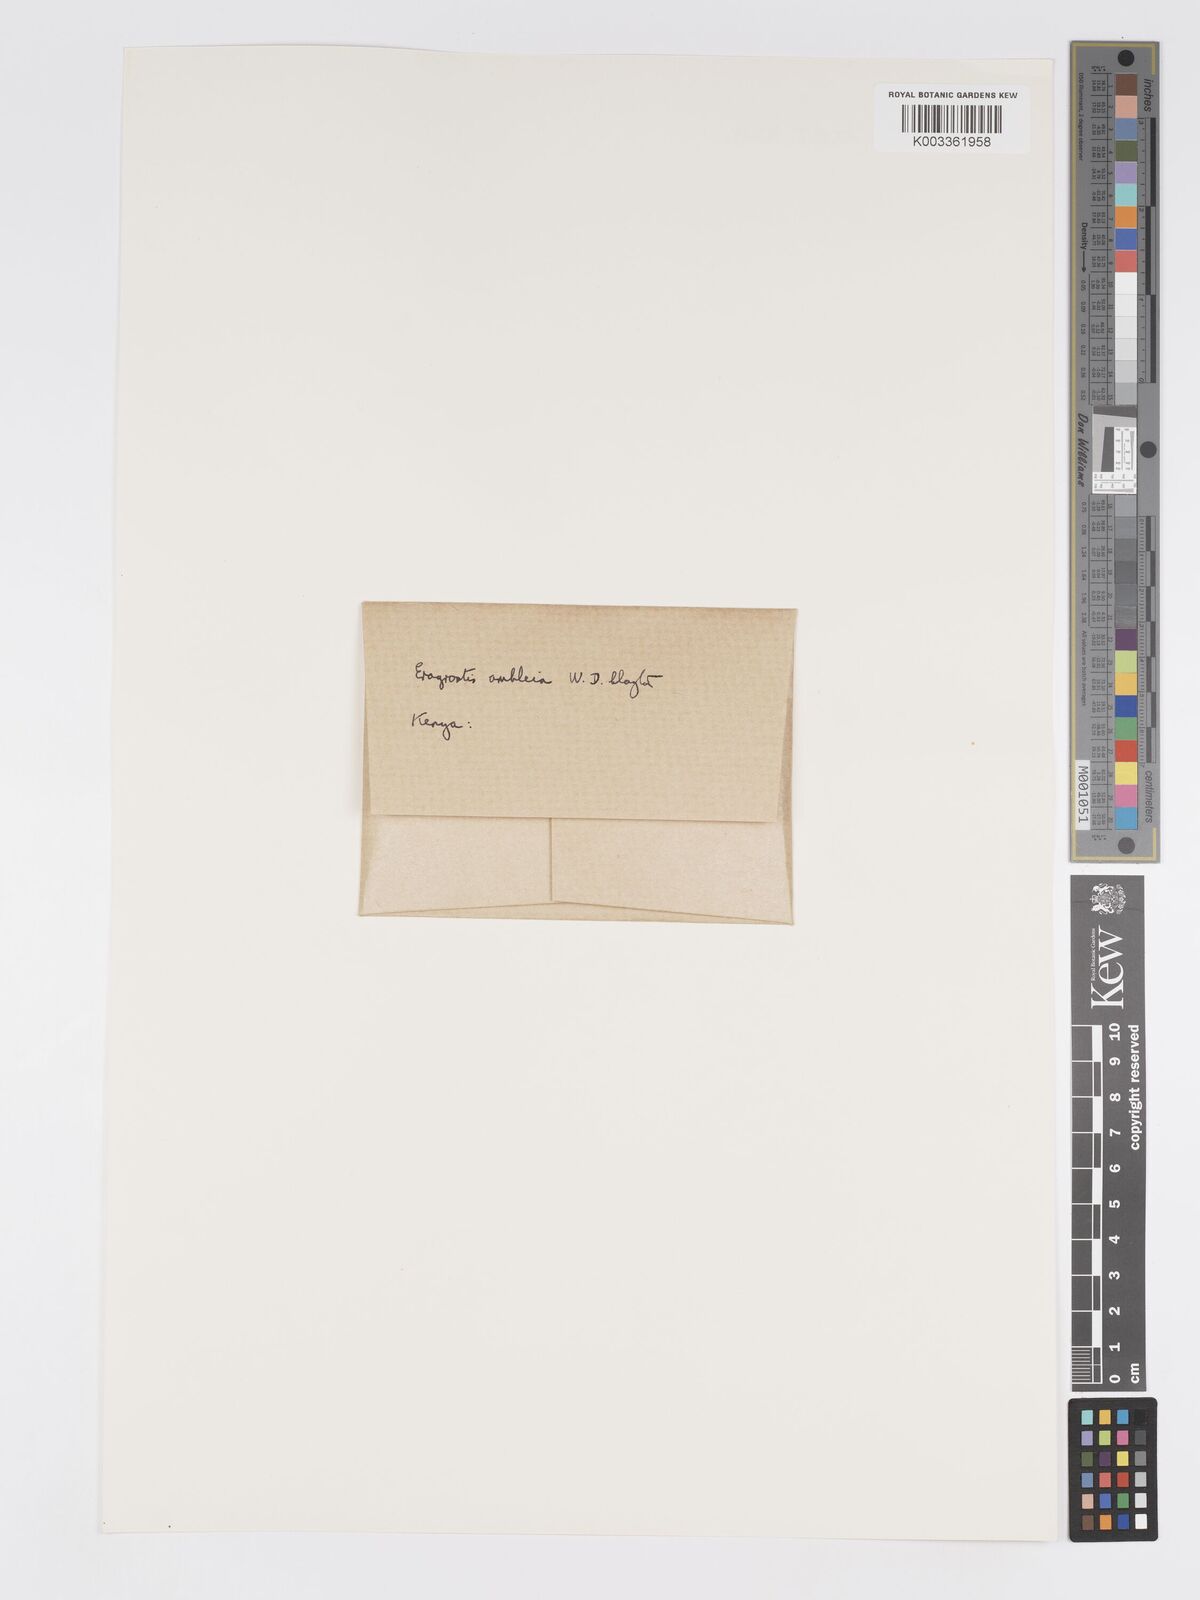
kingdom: Plantae
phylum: Tracheophyta
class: Liliopsida
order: Poales
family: Poaceae
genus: Eragrostis
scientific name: Eragrostis ambleia
